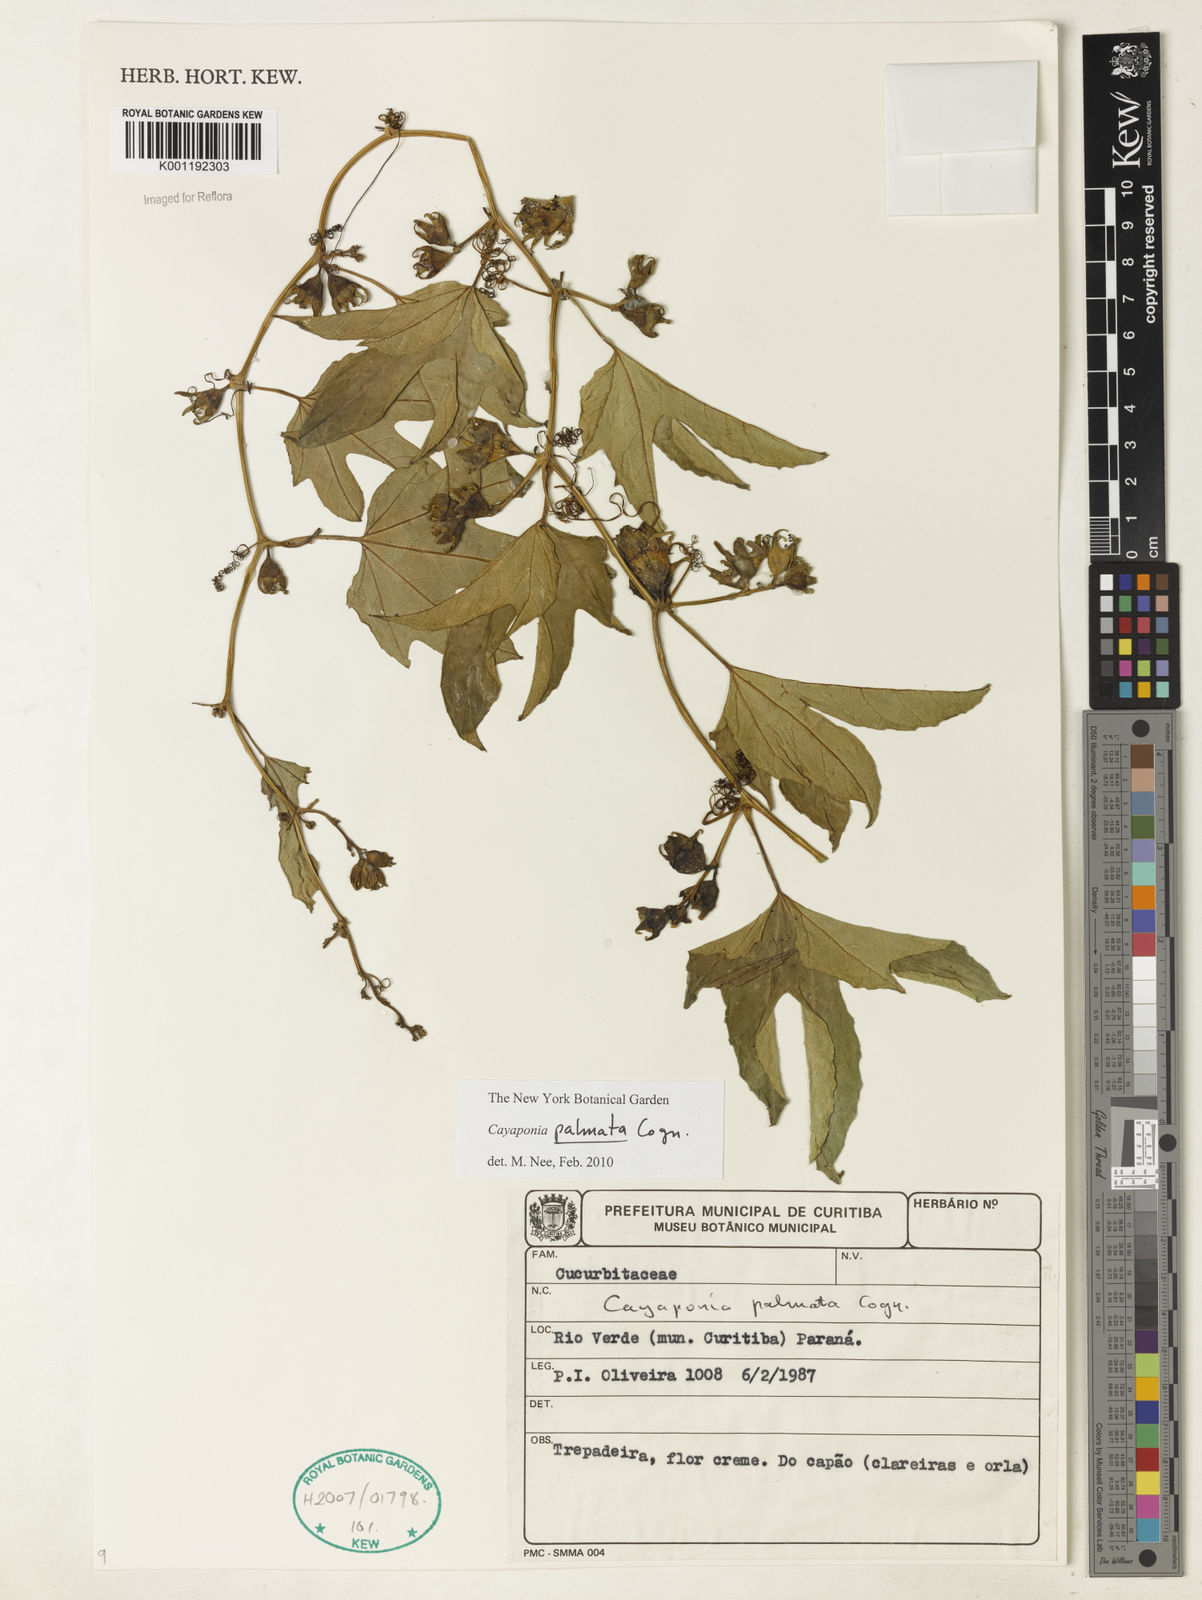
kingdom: Plantae
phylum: Tracheophyta
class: Magnoliopsida
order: Cucurbitales
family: Cucurbitaceae
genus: Cayaponia
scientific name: Cayaponia palmata
